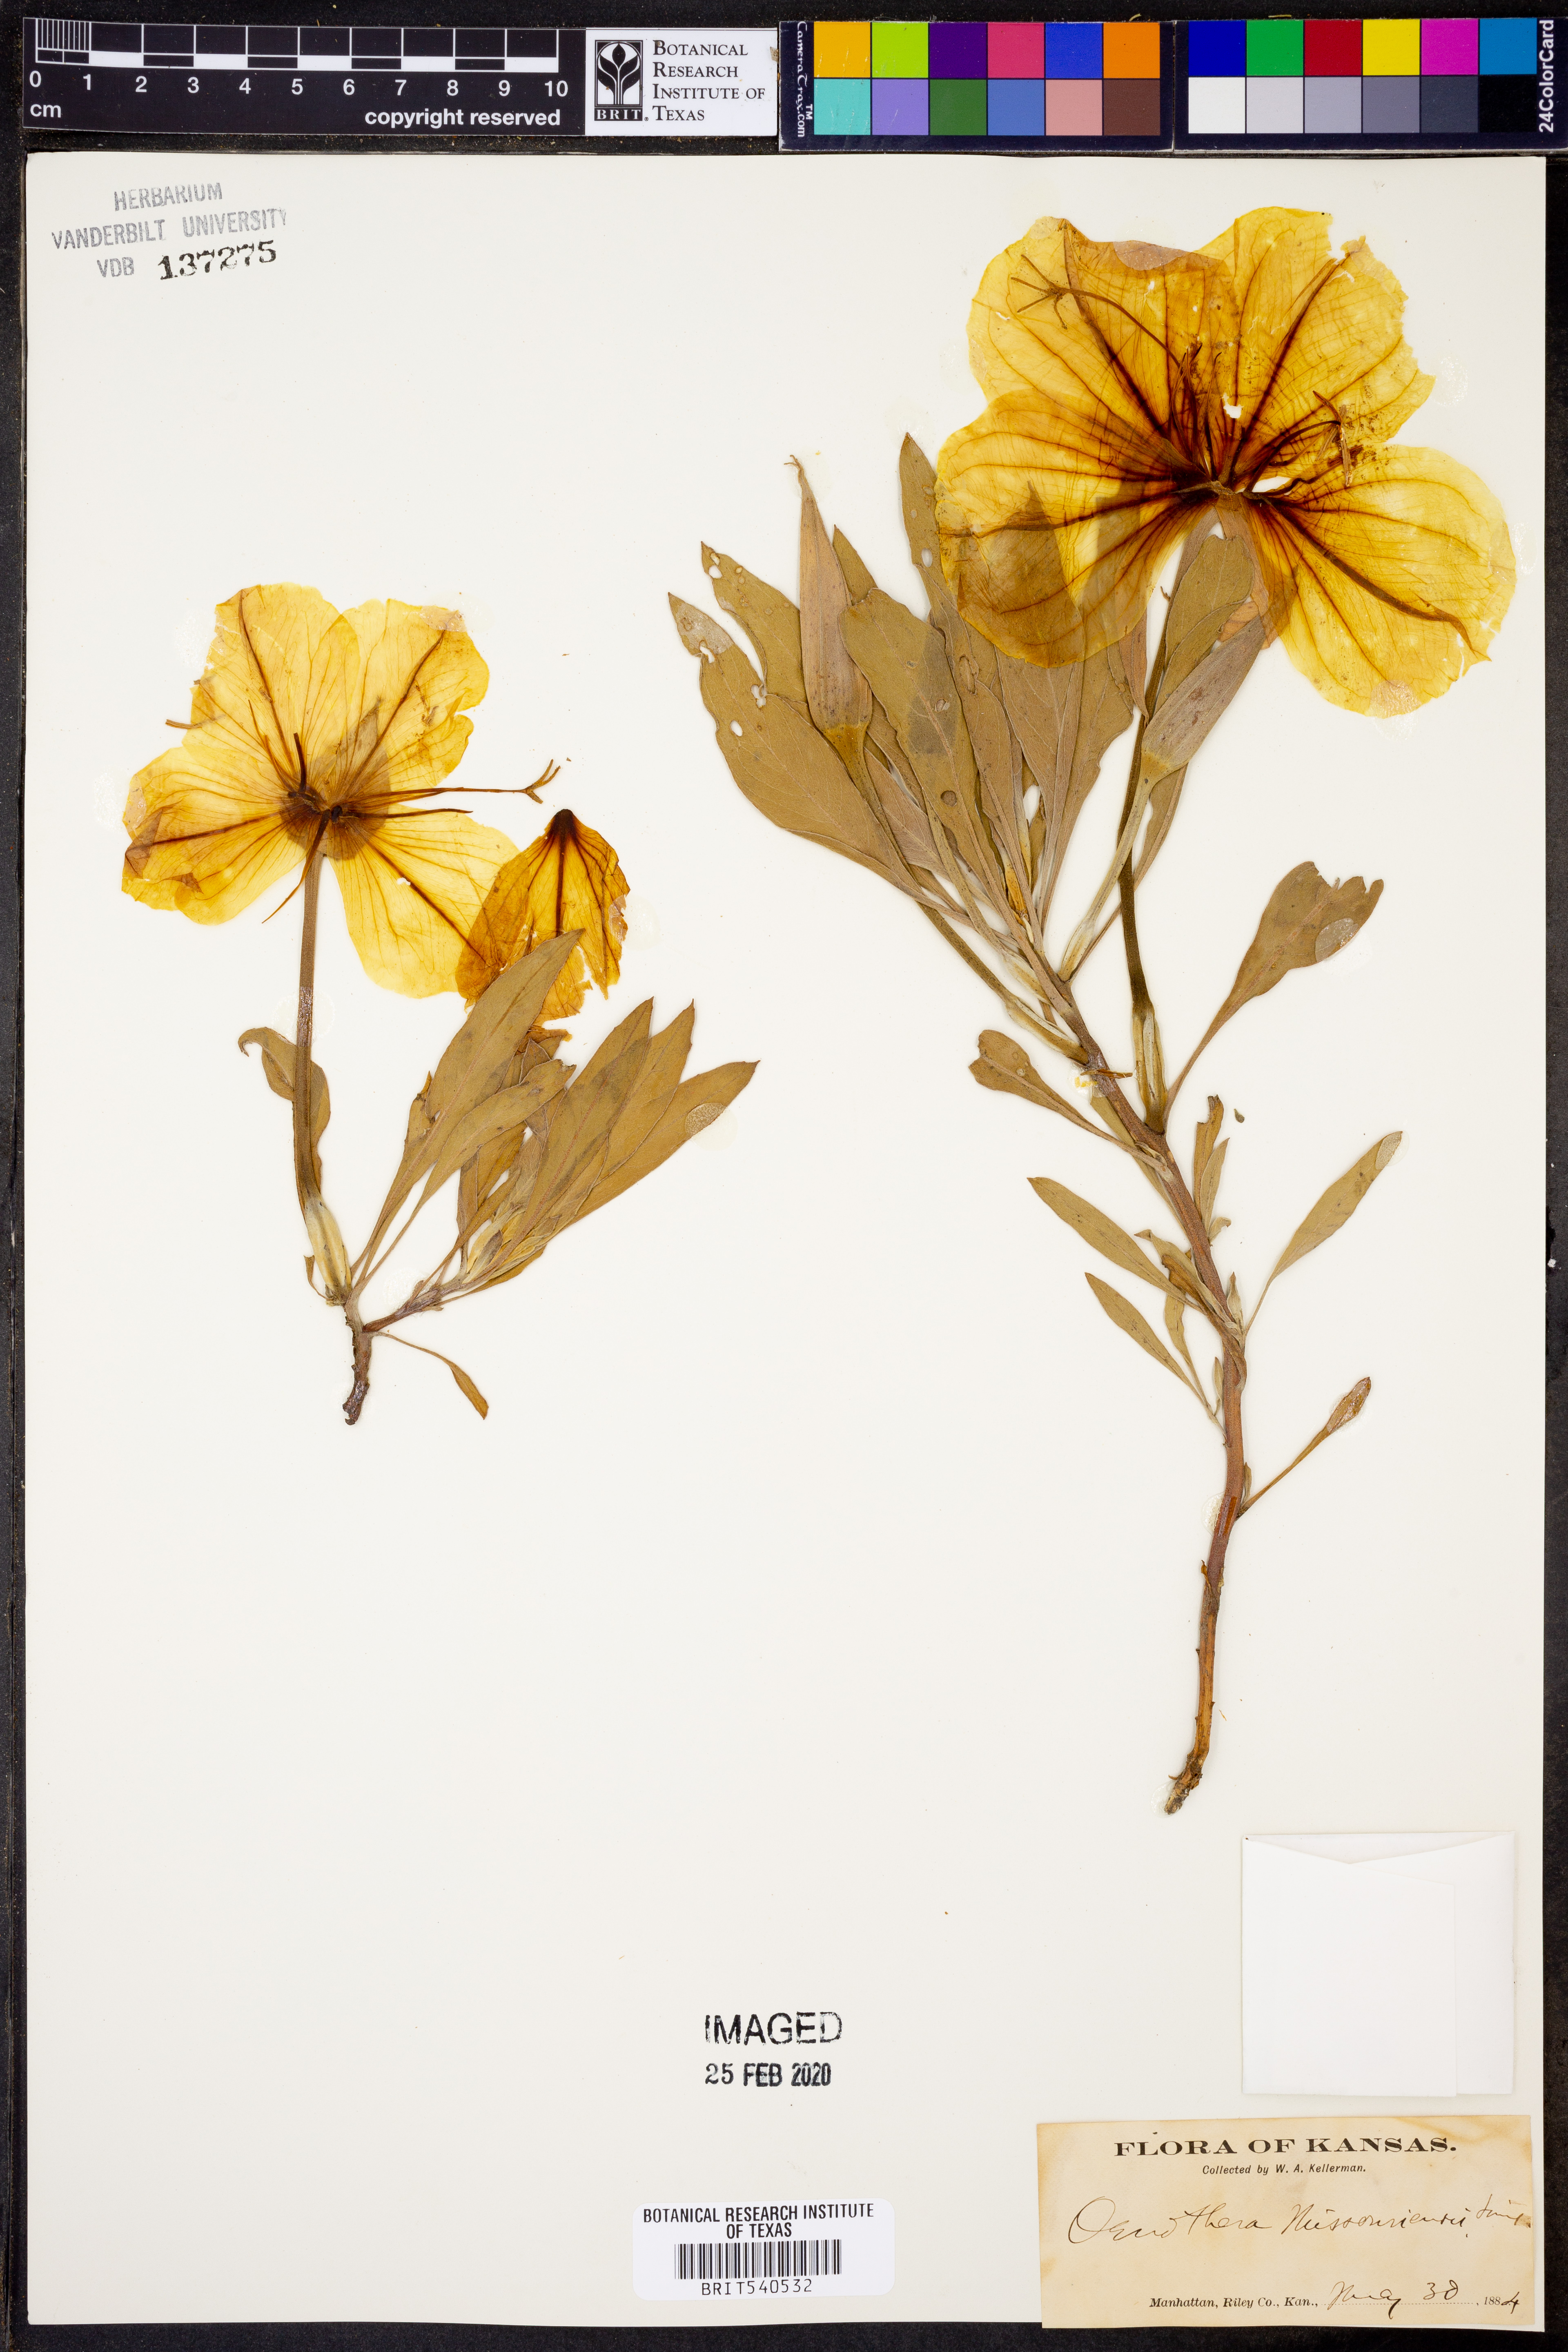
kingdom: Plantae
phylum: Tracheophyta
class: Magnoliopsida
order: Myrtales
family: Onagraceae
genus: Oenothera
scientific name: Oenothera macrocarpa
